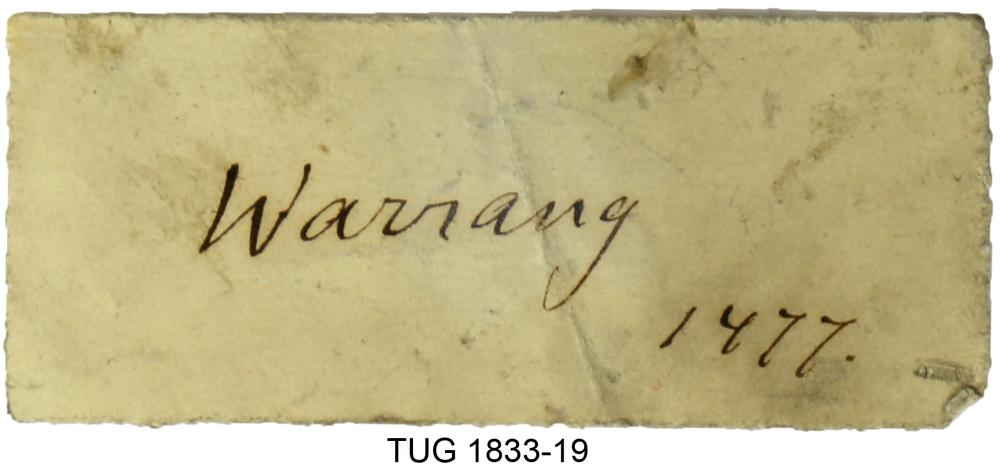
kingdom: Animalia
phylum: Porifera
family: Clathrodictyidae
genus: Clathrodictyon
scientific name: Clathrodictyon boreale
